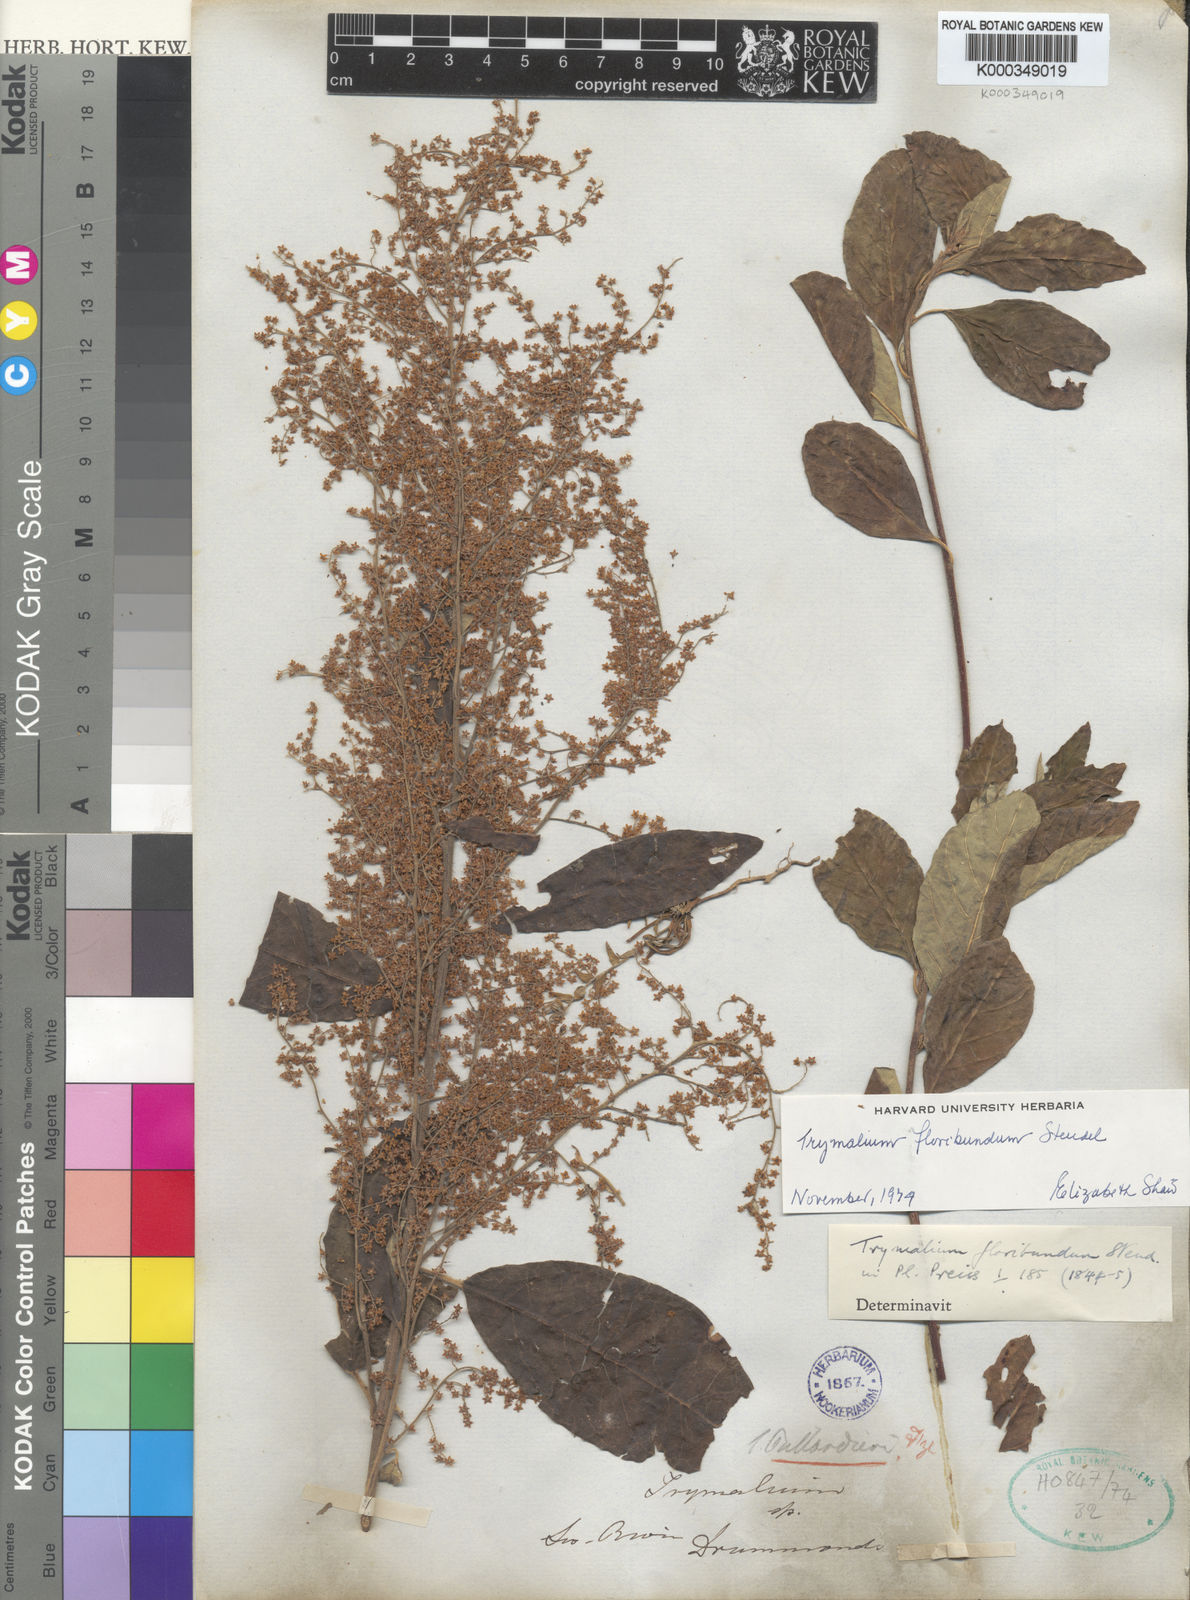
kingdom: Plantae
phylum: Tracheophyta
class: Magnoliopsida
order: Rosales
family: Rhamnaceae
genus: Trymalium
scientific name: Trymalium odoratissimum
